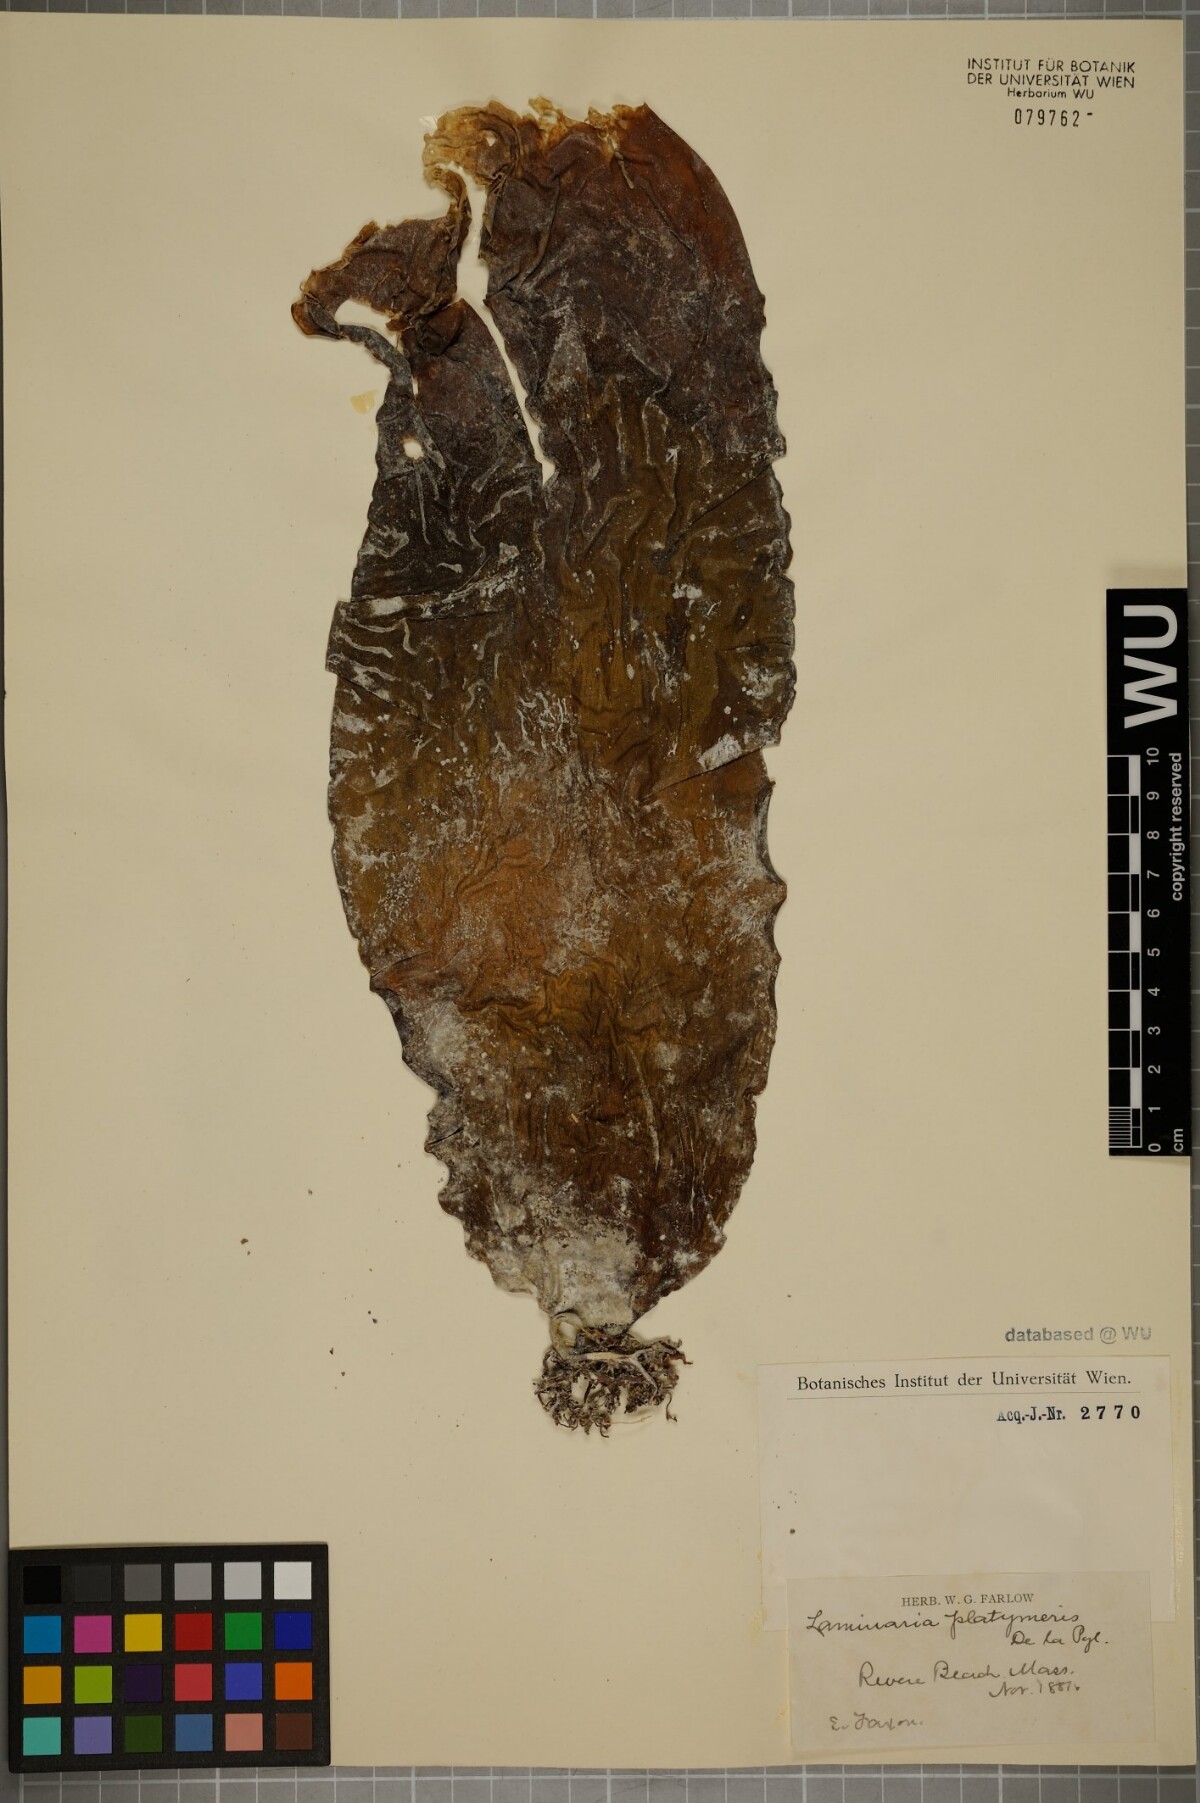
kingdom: Chromista
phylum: Ochrophyta
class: Phaeophyceae
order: Laminariales
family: Laminariaceae
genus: Laminaria
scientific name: Laminaria digitata
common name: Oarweed
